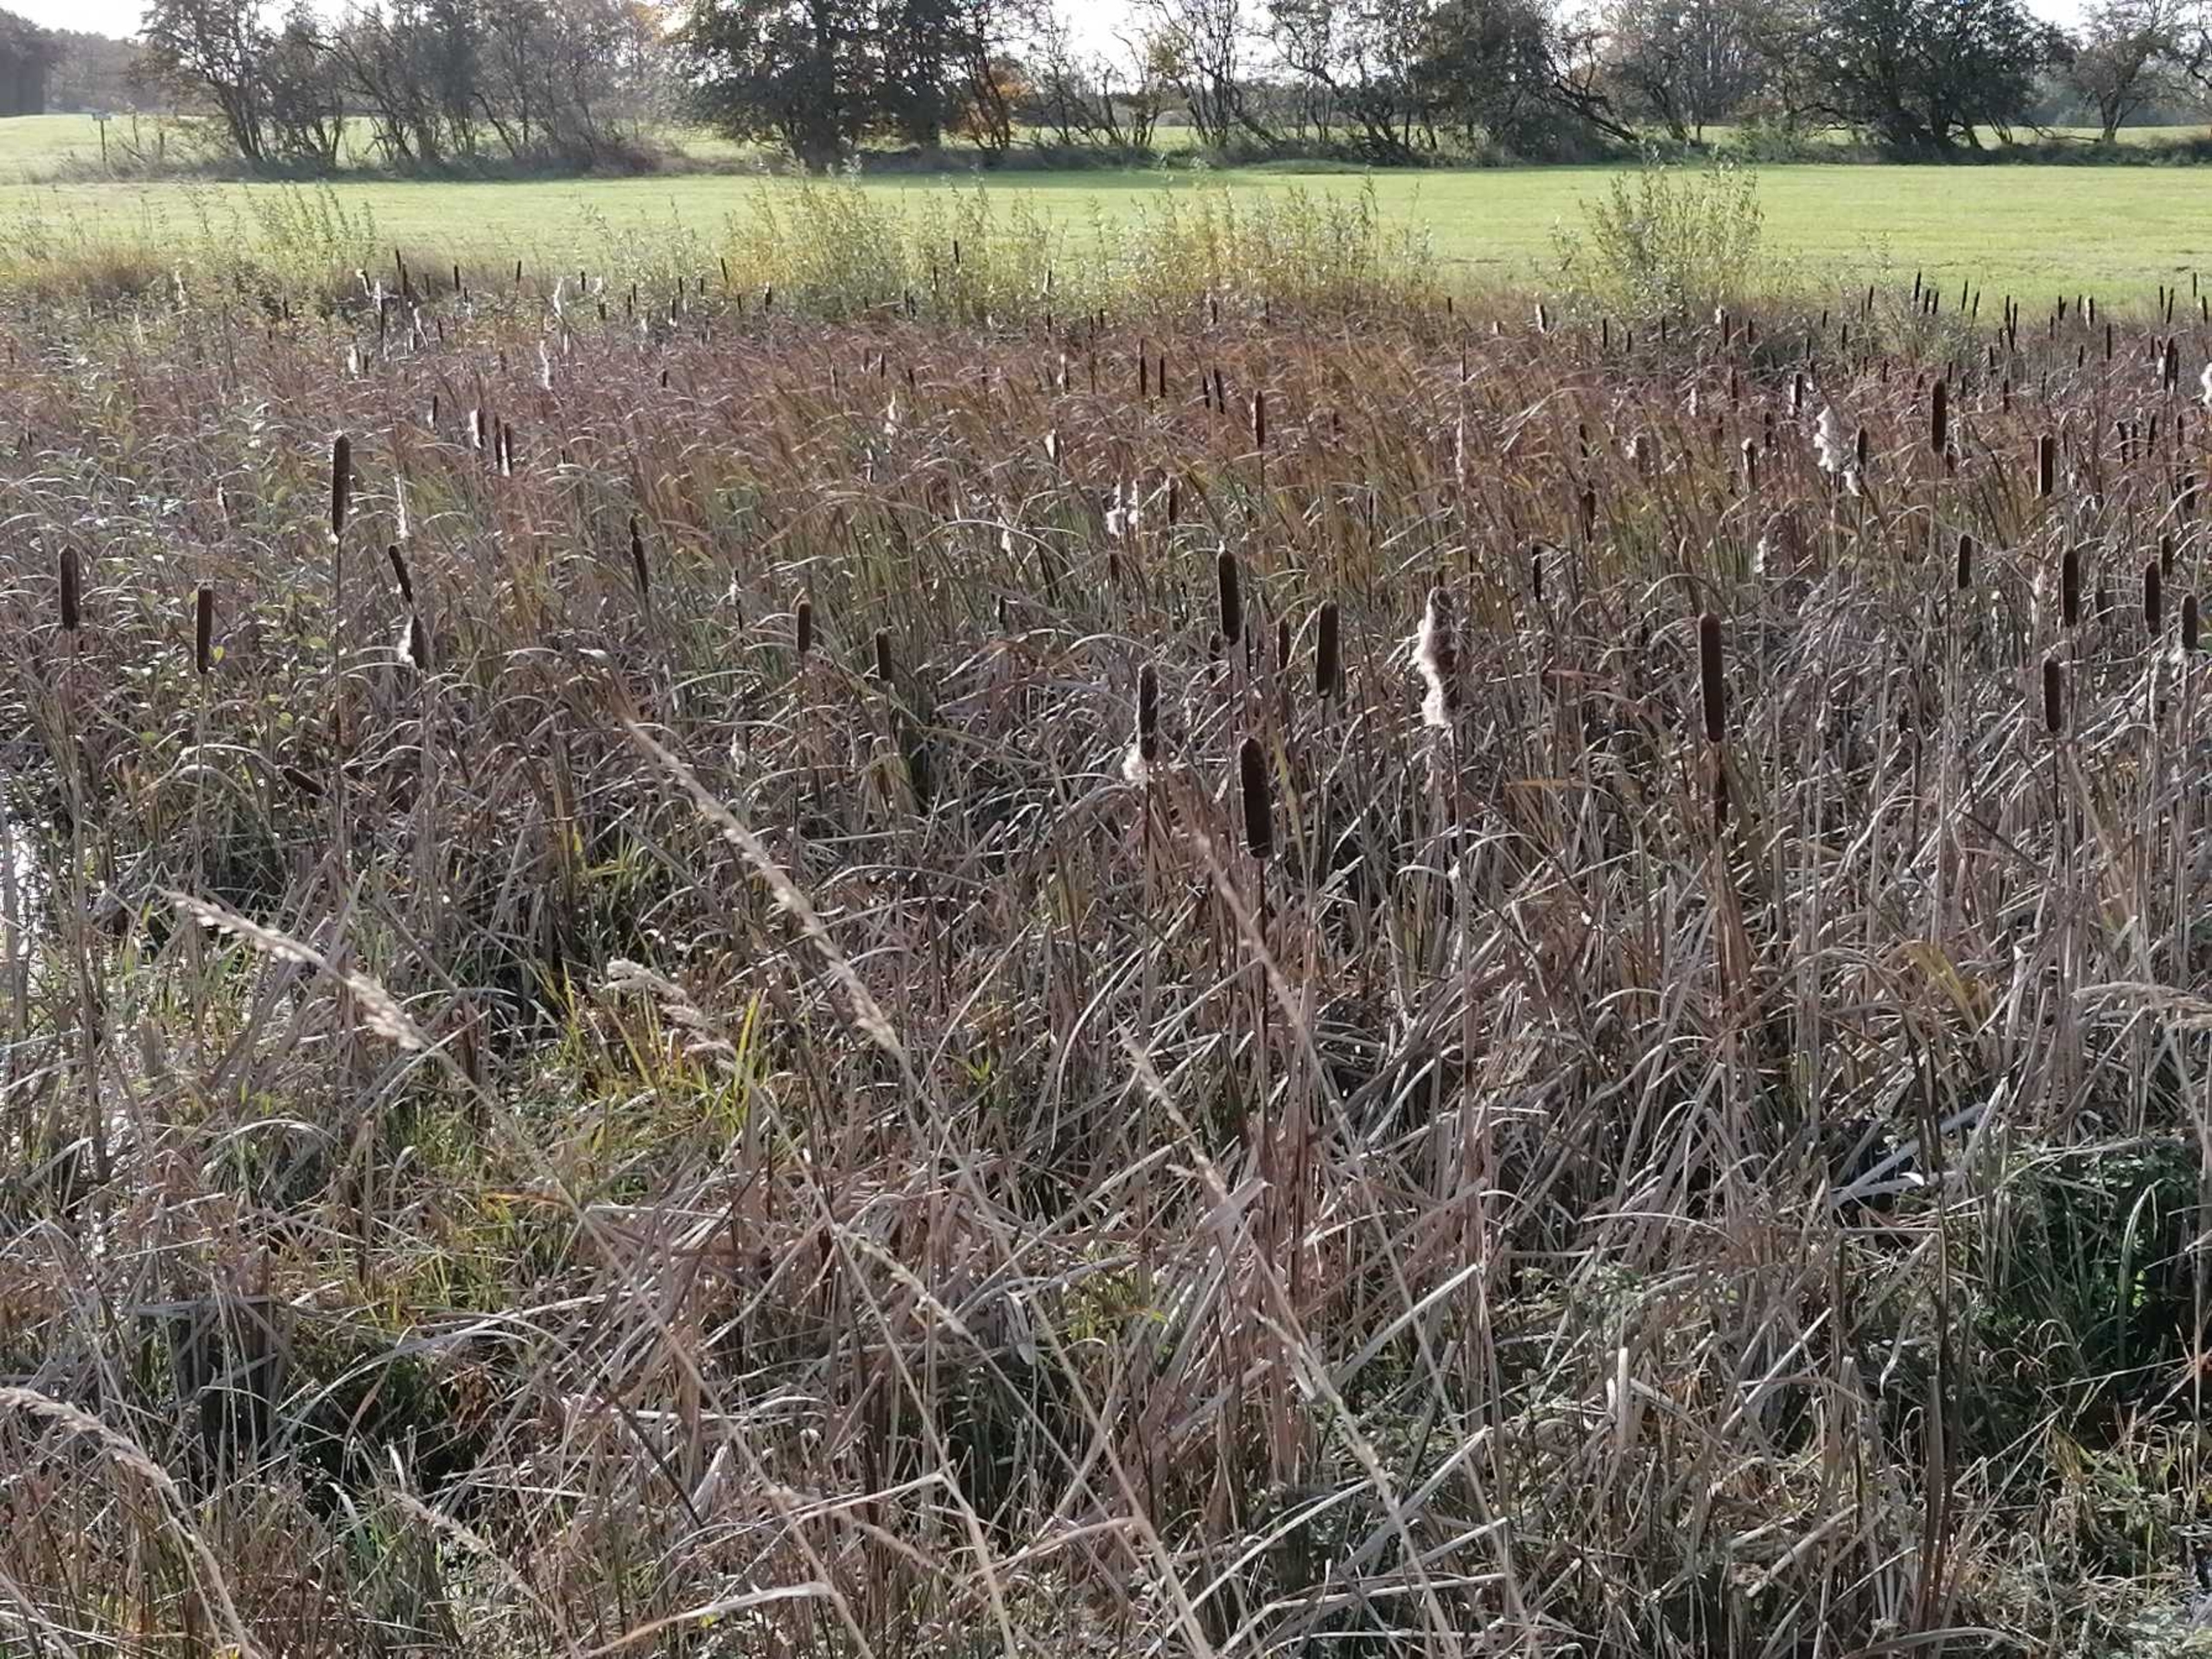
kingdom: Plantae
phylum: Tracheophyta
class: Liliopsida
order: Poales
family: Typhaceae
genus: Typha
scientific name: Typha latifolia
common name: Bredbladet dunhammer
